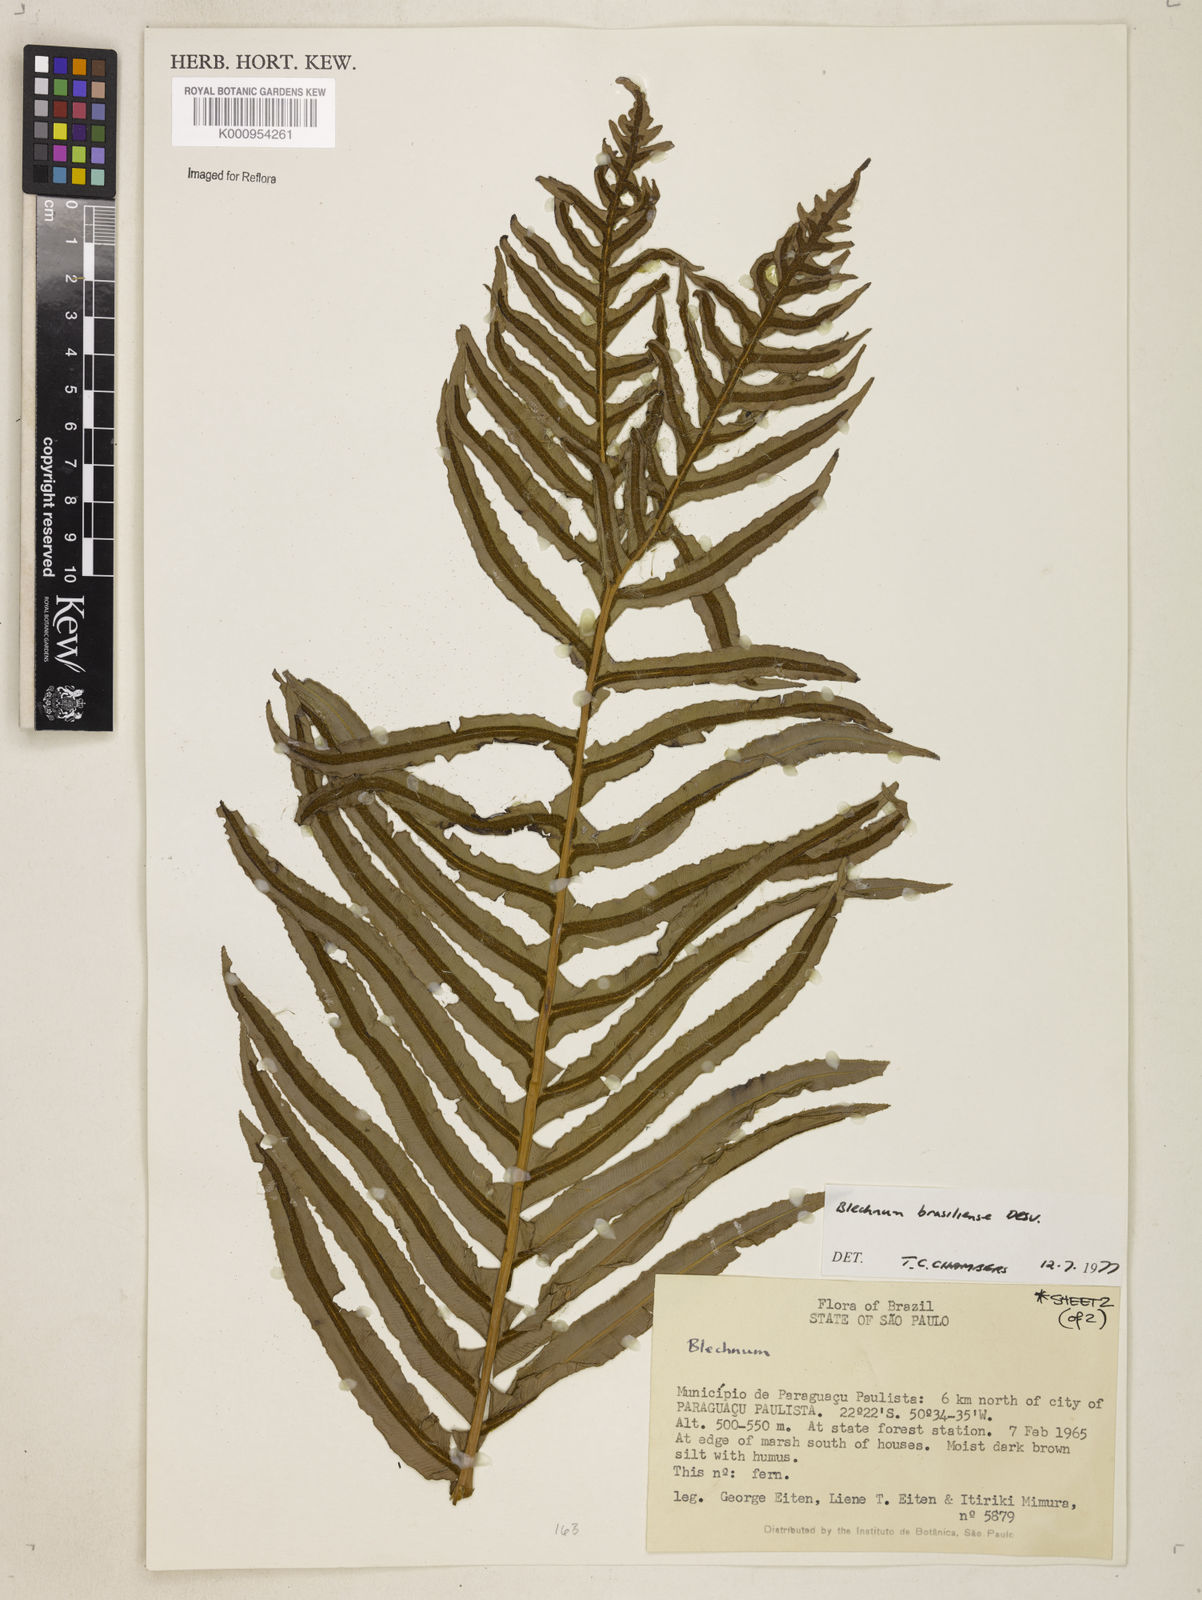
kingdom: Plantae
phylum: Tracheophyta
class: Polypodiopsida
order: Polypodiales
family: Blechnaceae
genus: Neoblechnum
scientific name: Neoblechnum brasiliense
